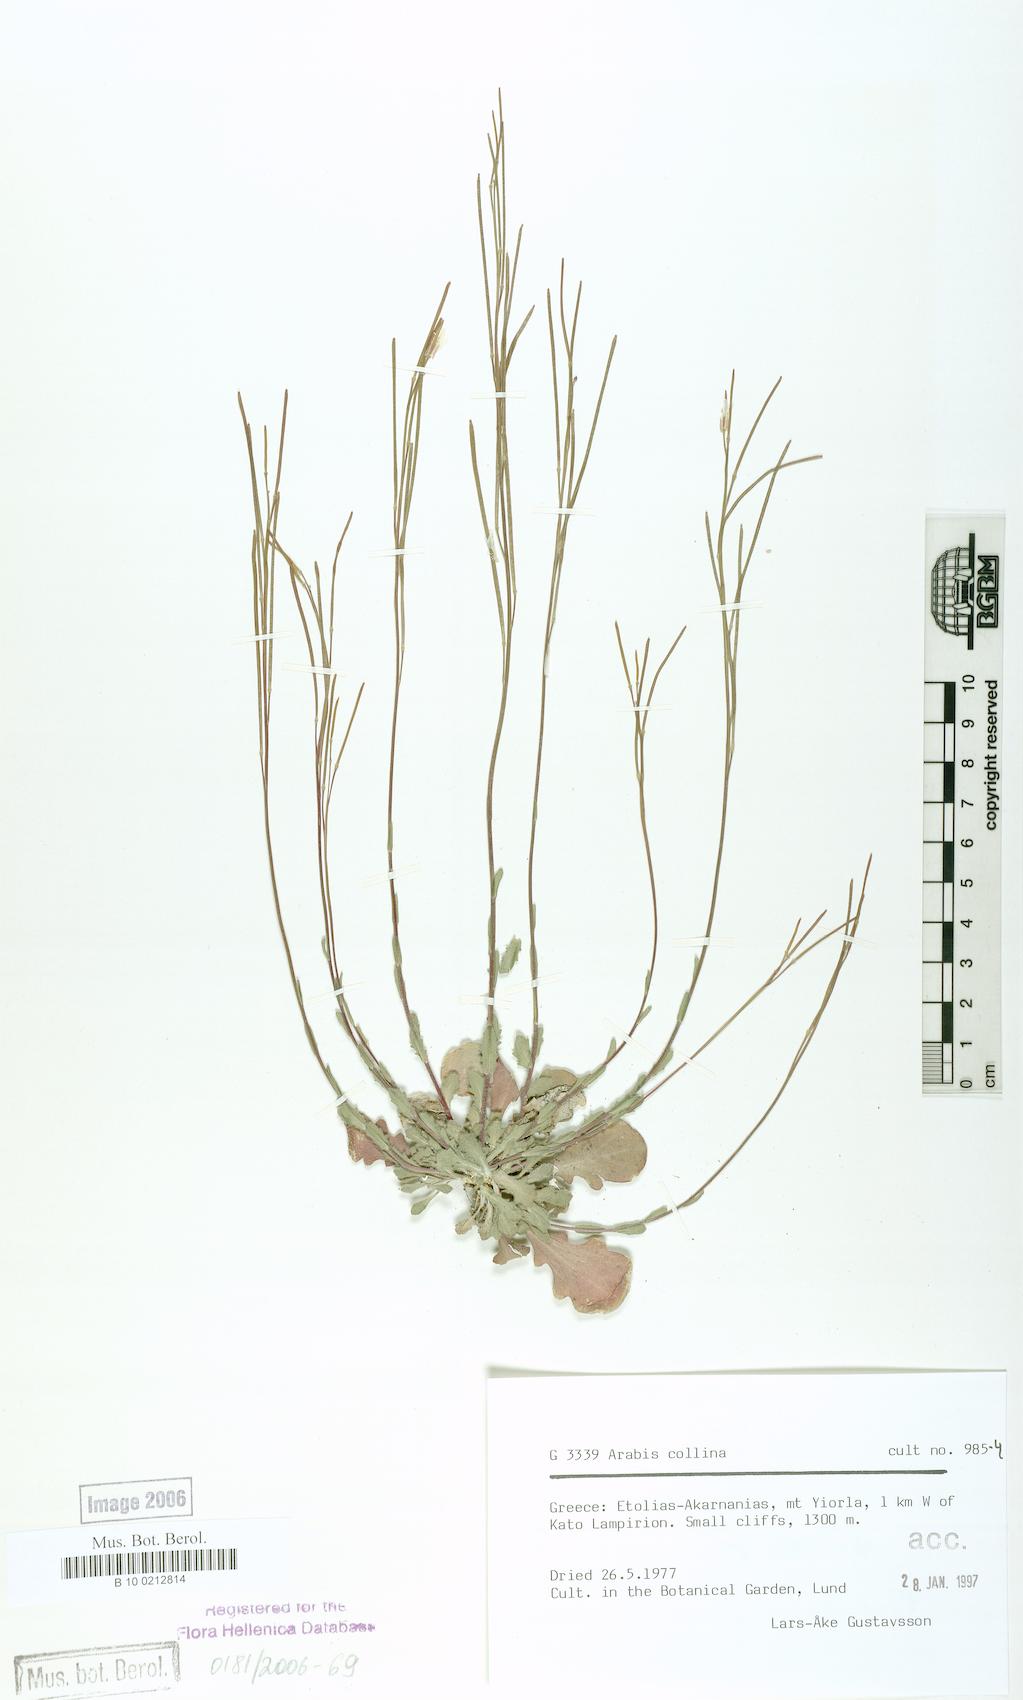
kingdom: Plantae
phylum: Tracheophyta
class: Magnoliopsida
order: Brassicales
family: Brassicaceae
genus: Arabis
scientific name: Arabis collina
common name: Rosy cress
